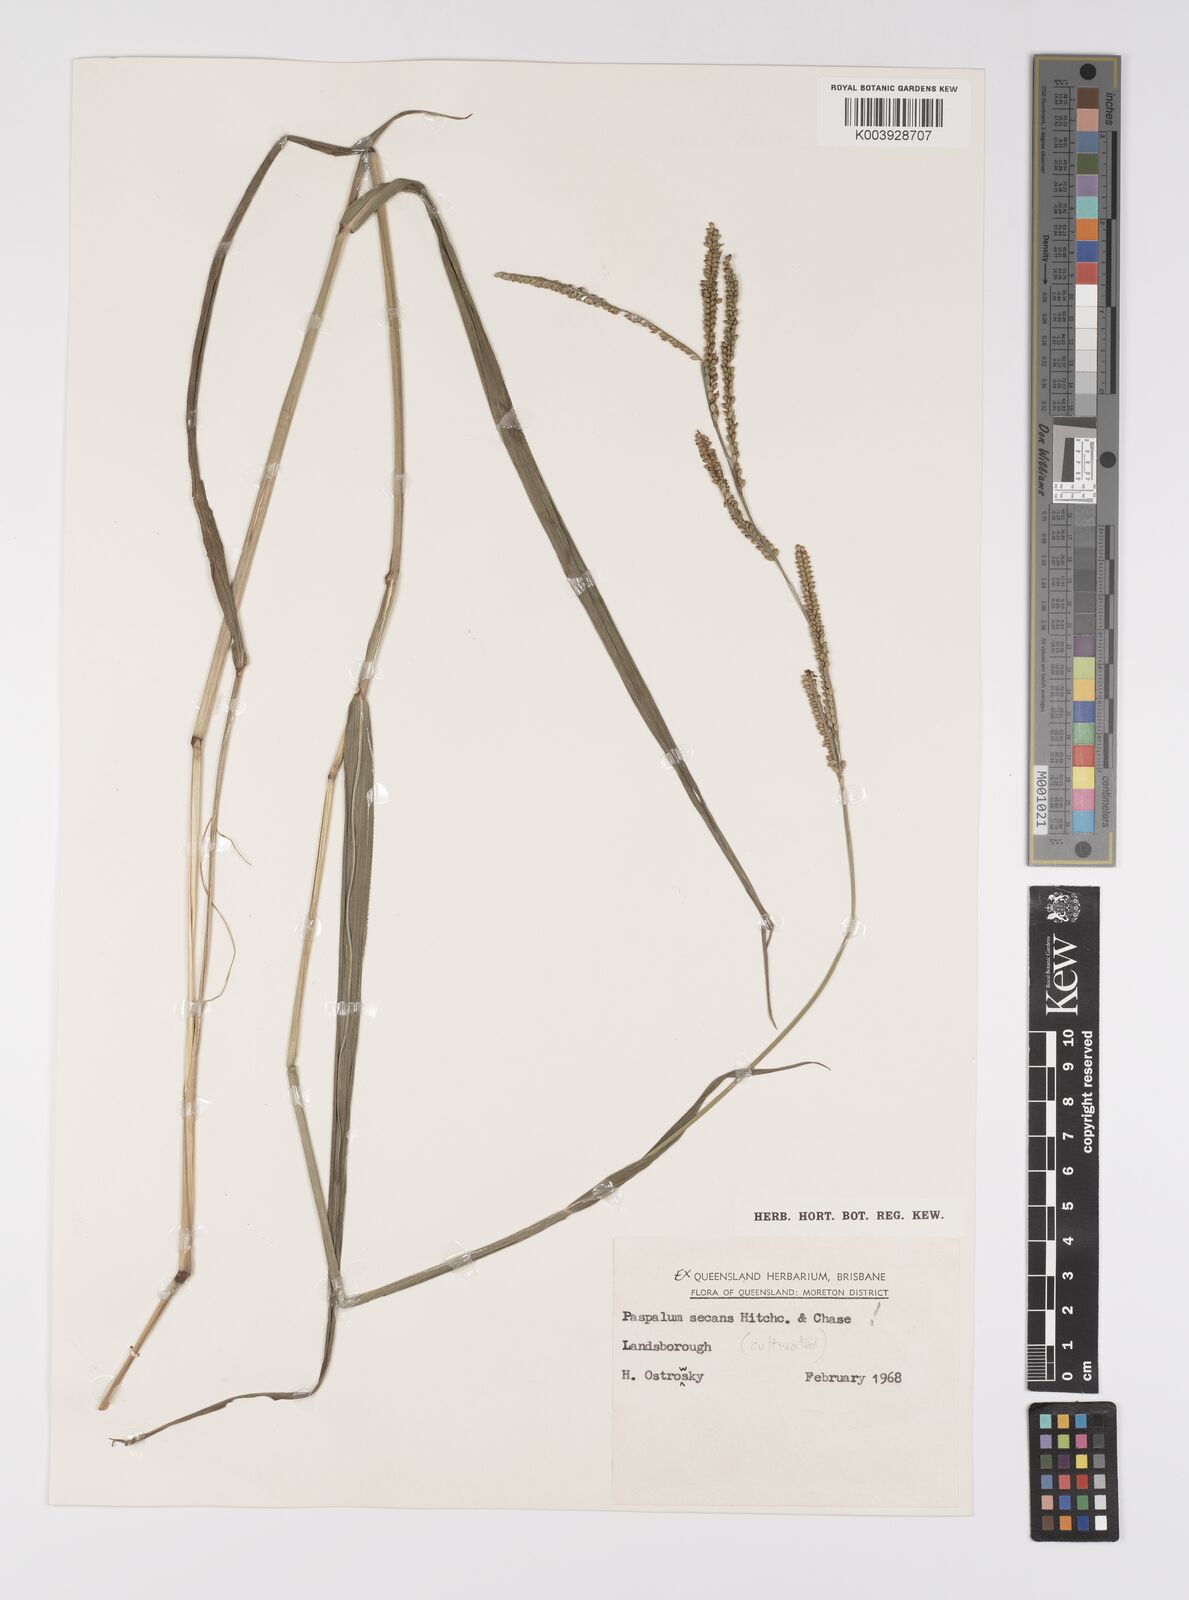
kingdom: Plantae
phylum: Tracheophyta
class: Liliopsida
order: Poales
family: Poaceae
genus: Paspalum
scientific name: Paspalum arundinaceum
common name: Thick ditch crowngrass
